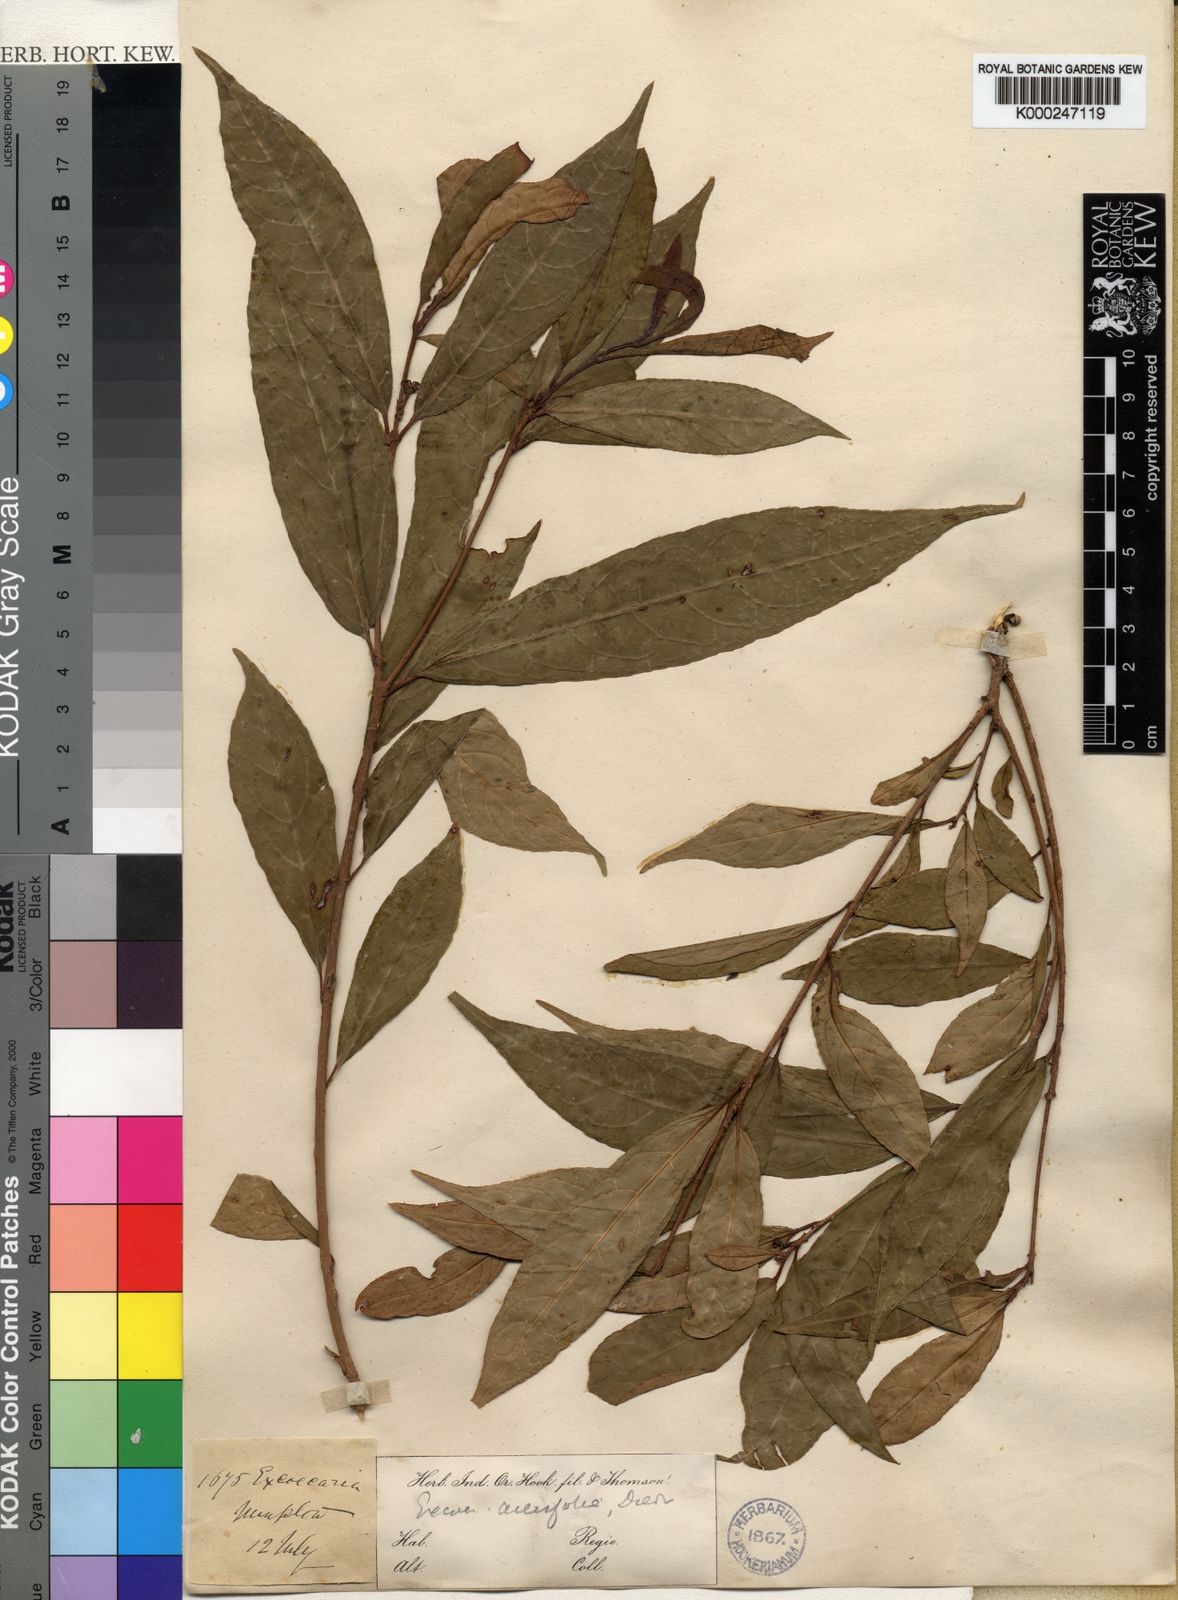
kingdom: Plantae
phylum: Tracheophyta
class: Magnoliopsida
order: Malpighiales
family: Euphorbiaceae
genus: Excoecaria
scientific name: Excoecaria acerifolia
